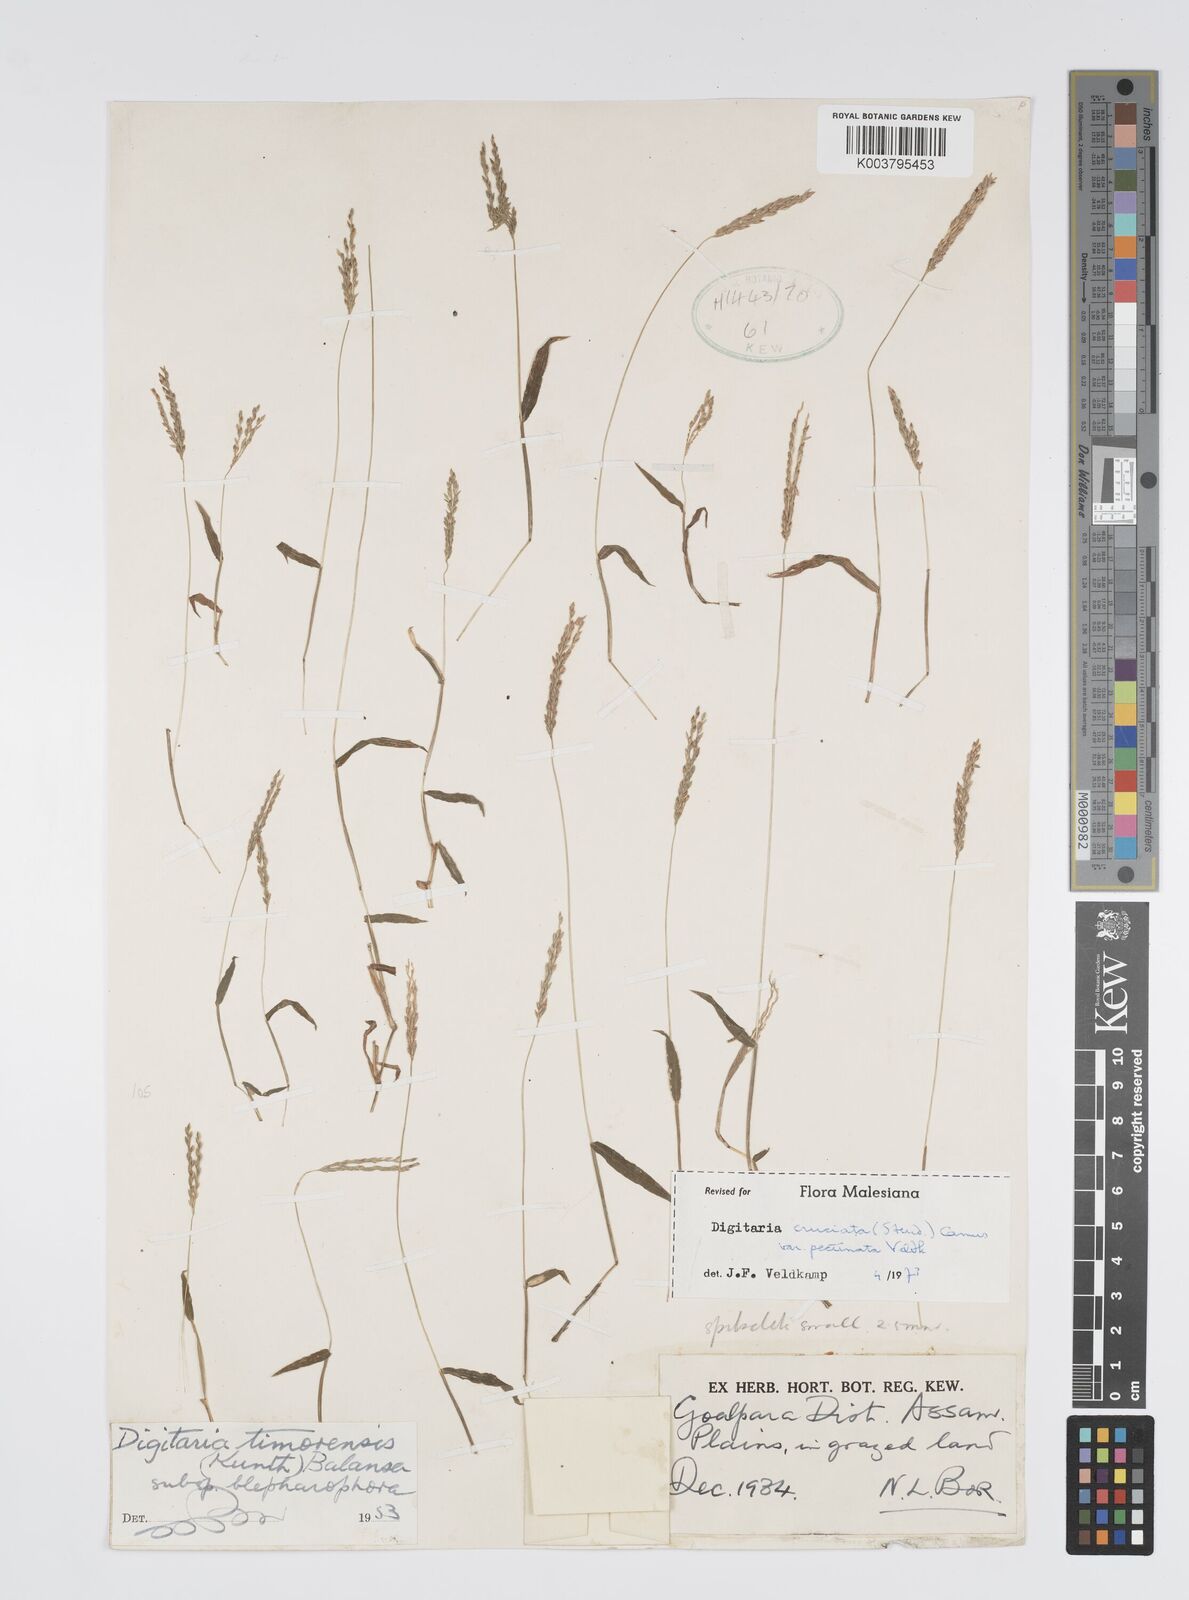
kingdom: Plantae
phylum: Tracheophyta
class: Liliopsida
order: Poales
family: Poaceae
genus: Digitaria
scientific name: Digitaria cruciata
